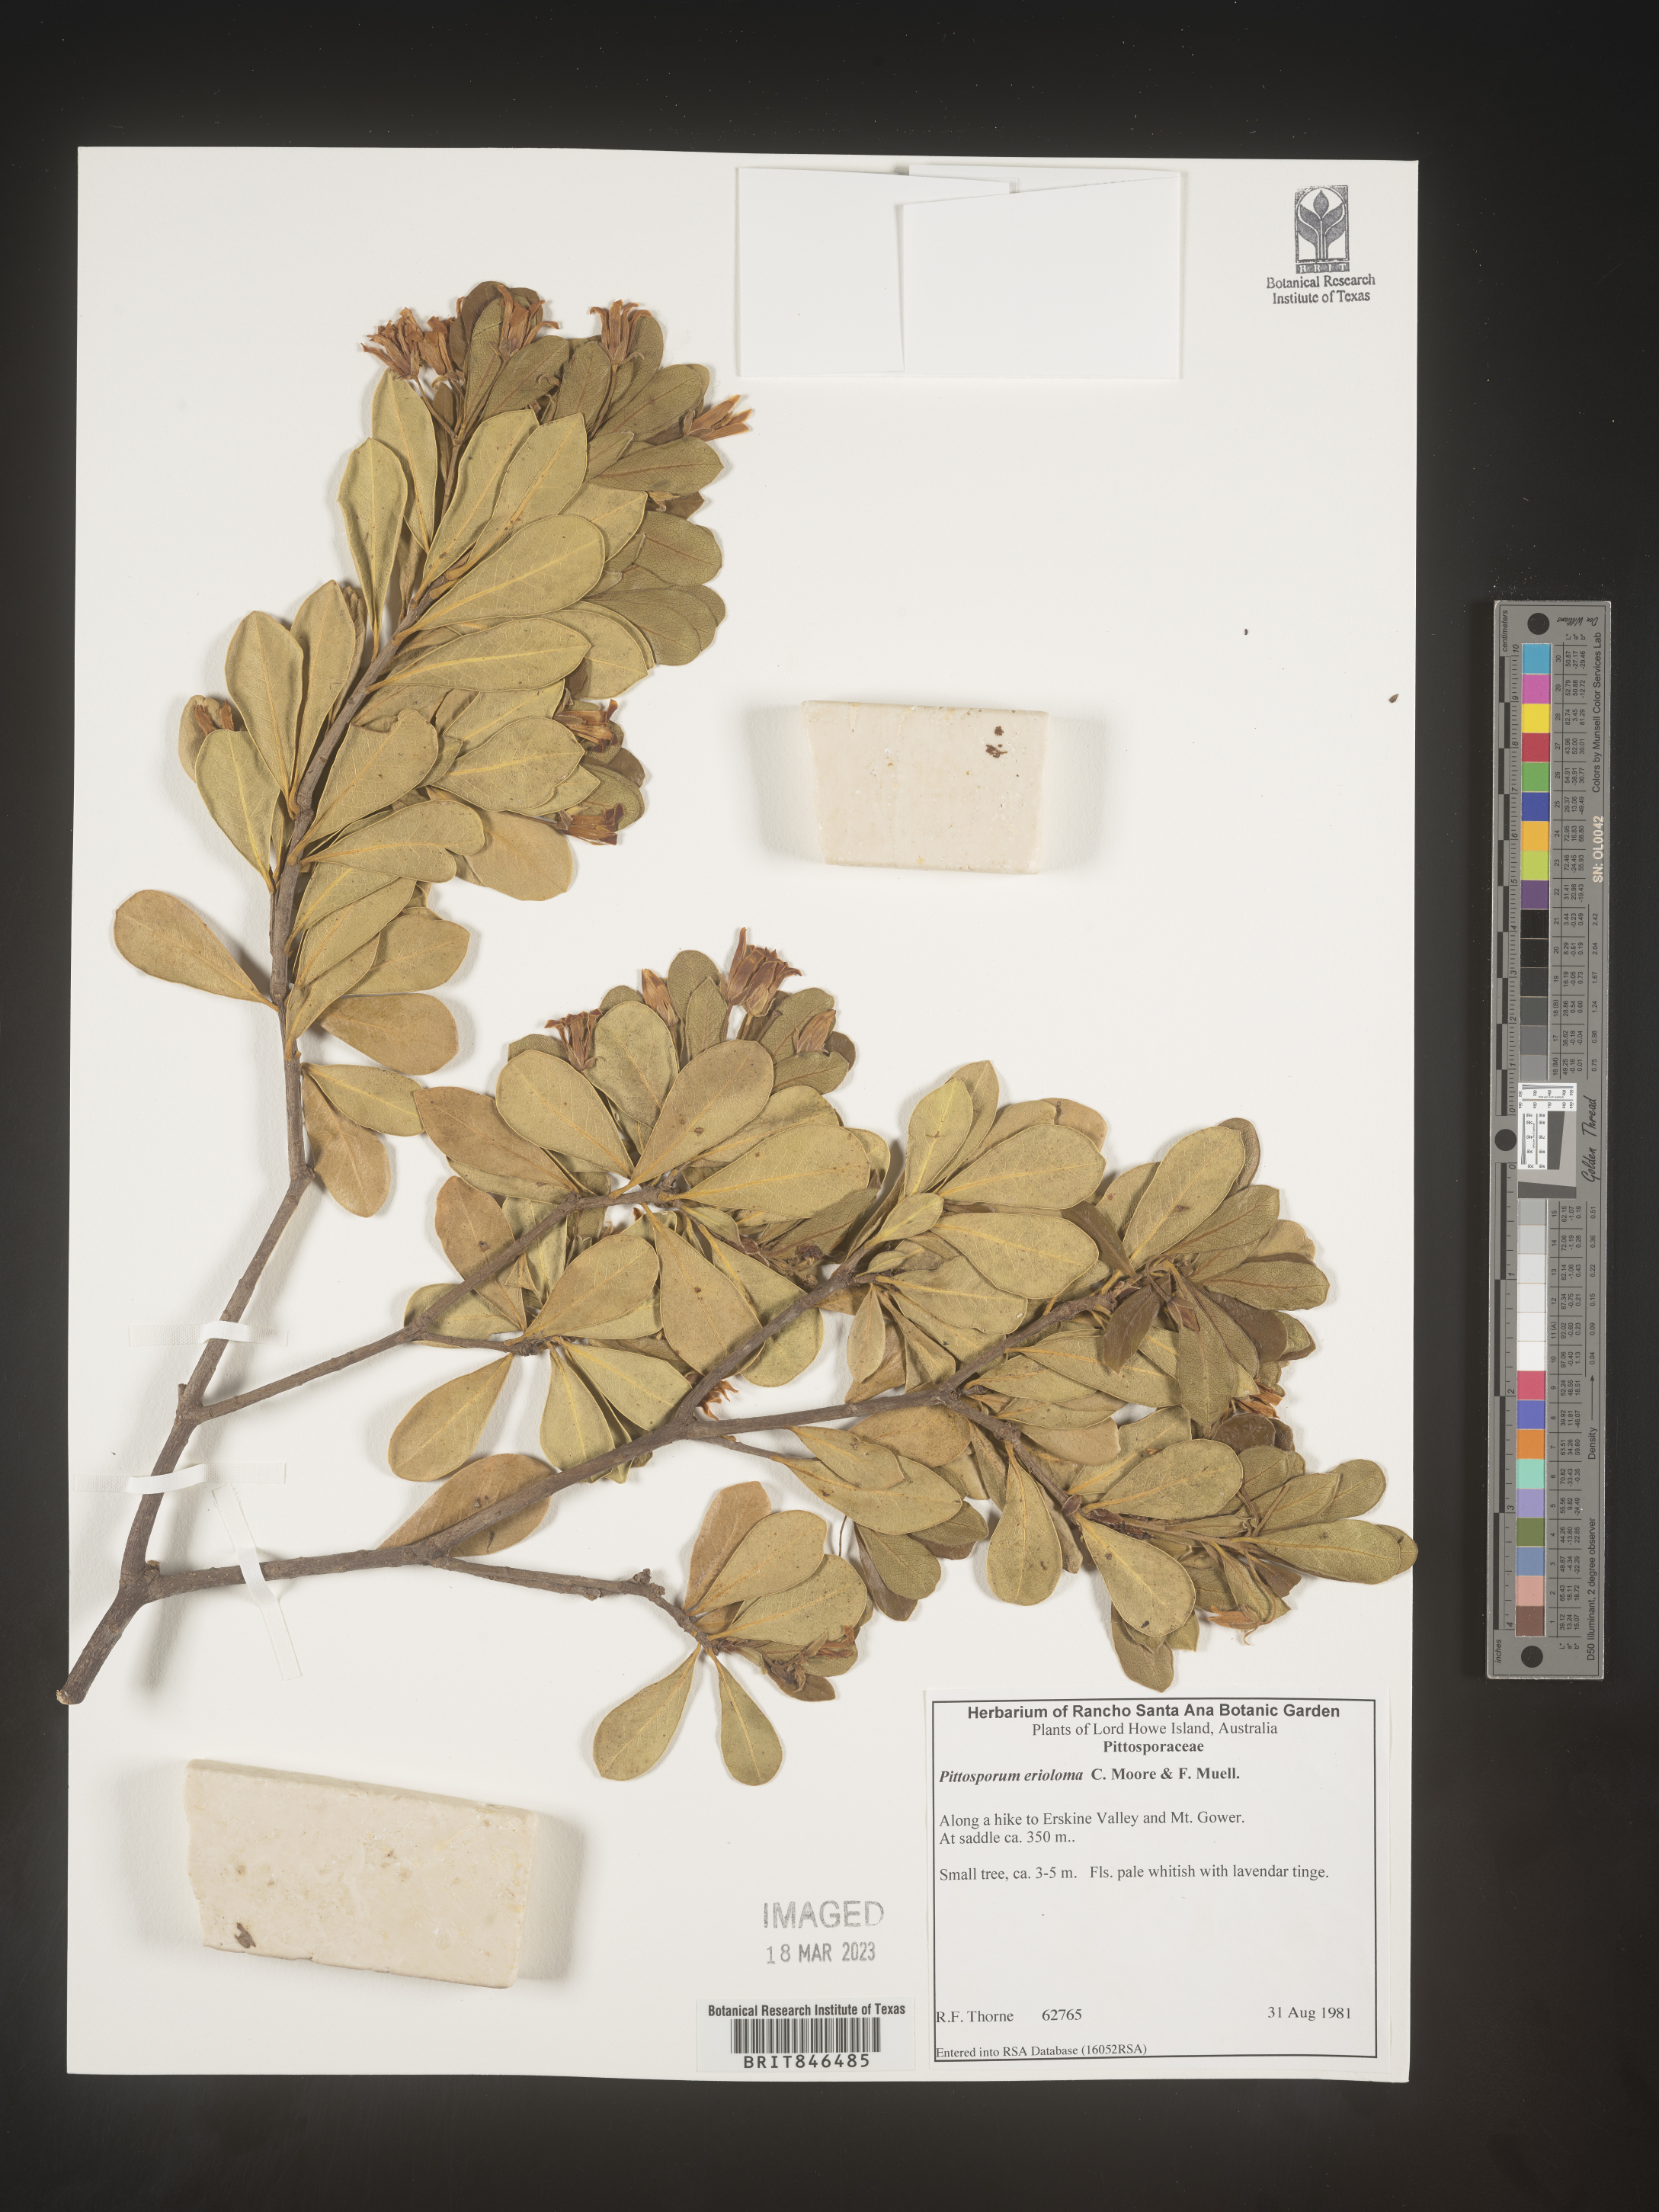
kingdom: Plantae
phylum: Tracheophyta
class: Magnoliopsida
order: Apiales
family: Pittosporaceae
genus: Pittosporum
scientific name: Pittosporum
